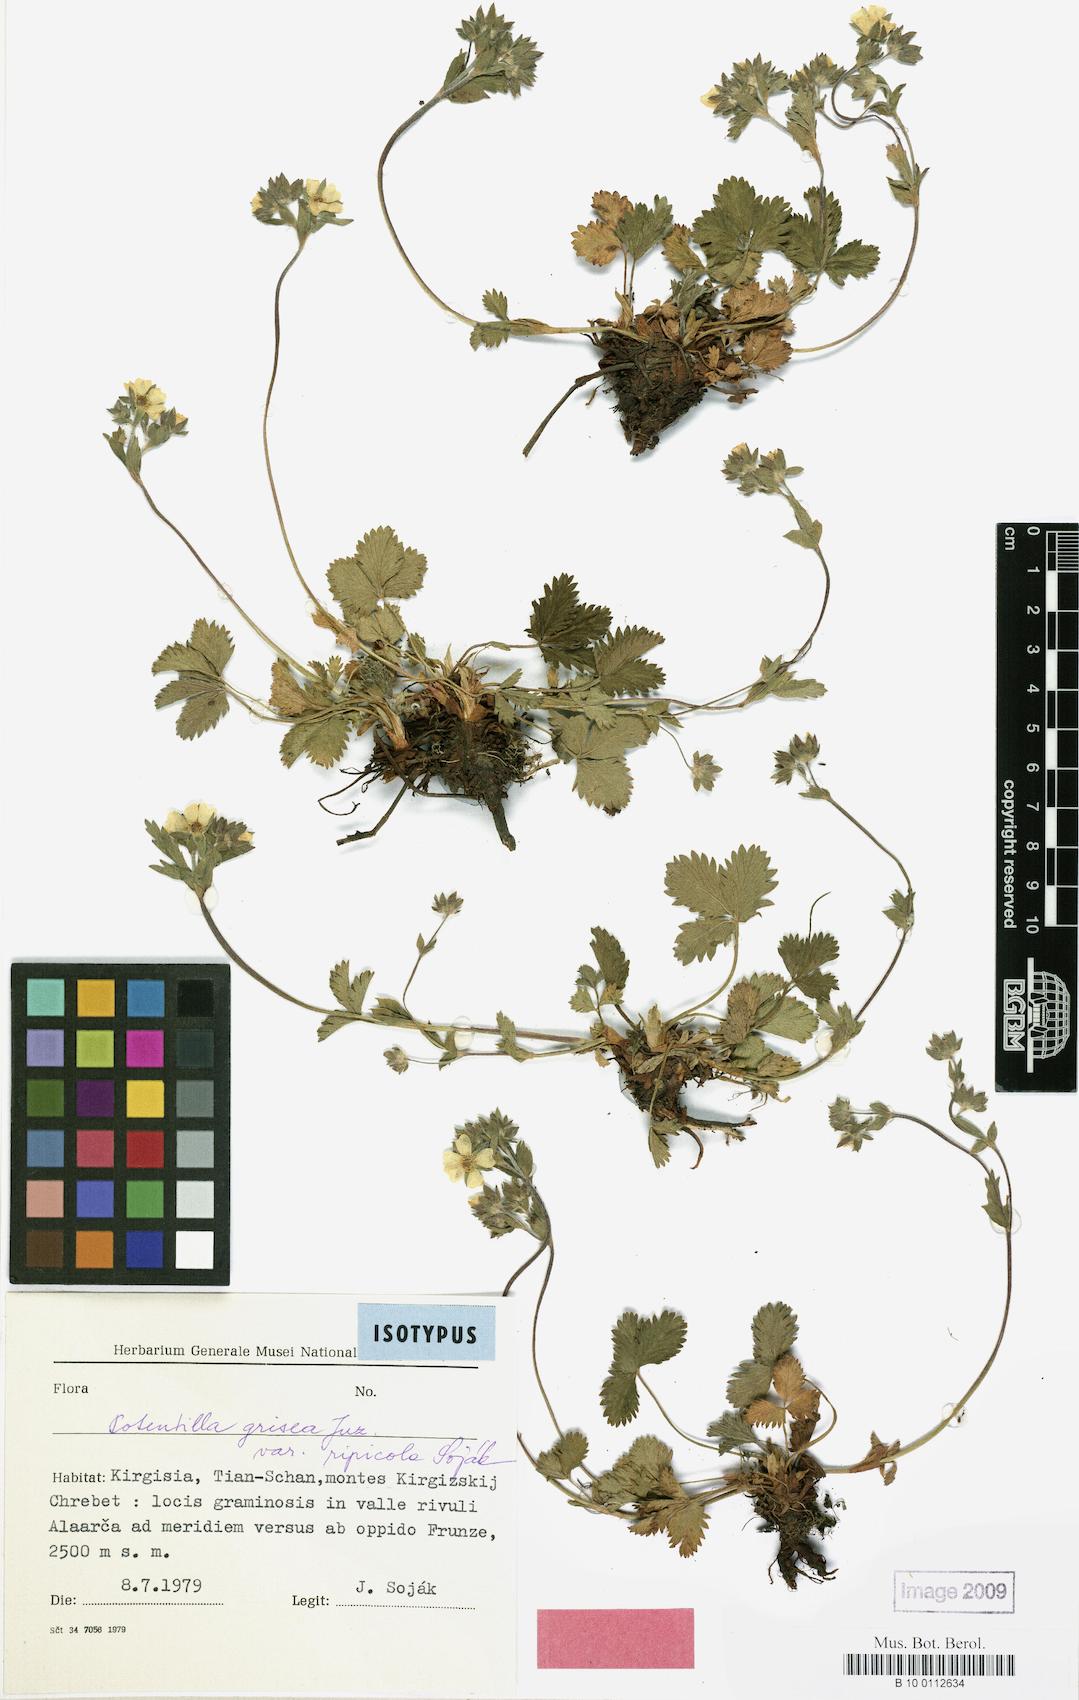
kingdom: Plantae
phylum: Tracheophyta
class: Magnoliopsida
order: Rosales
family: Rosaceae
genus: Potentilla
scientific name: Potentilla grisea
